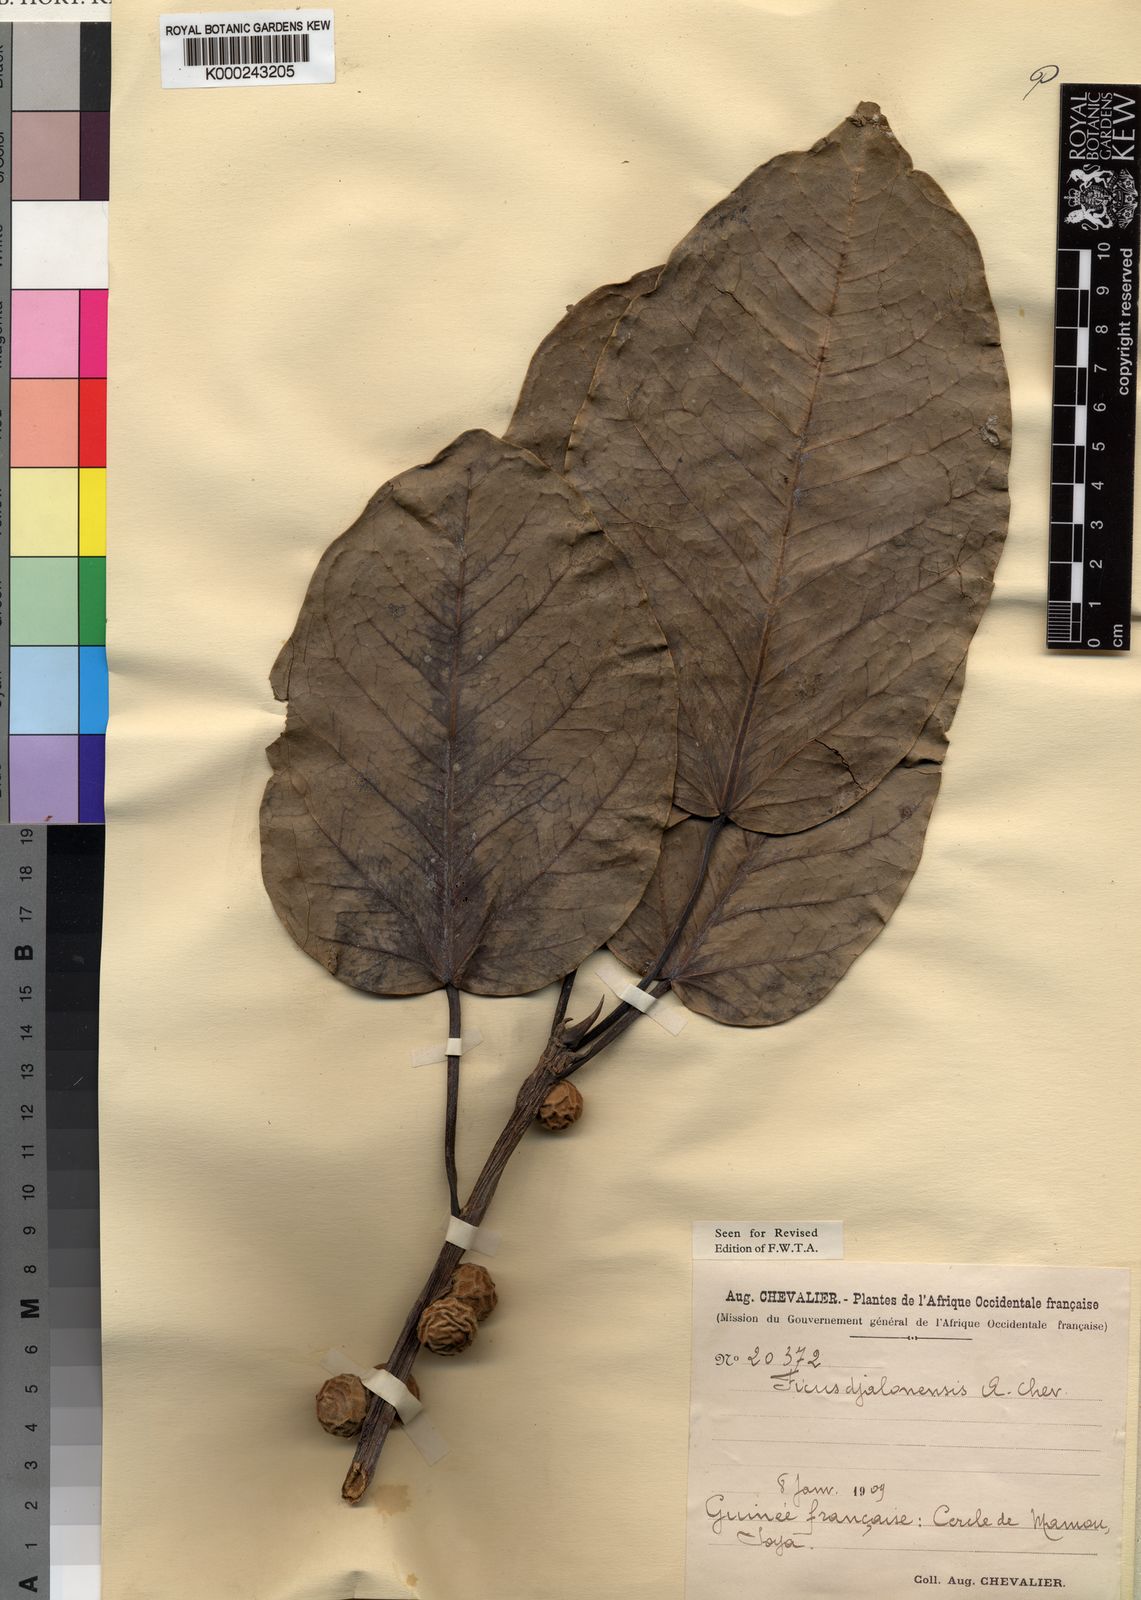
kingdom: Plantae
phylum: Tracheophyta
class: Magnoliopsida
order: Rosales
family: Moraceae
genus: Ficus
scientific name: Ficus calyptrata
